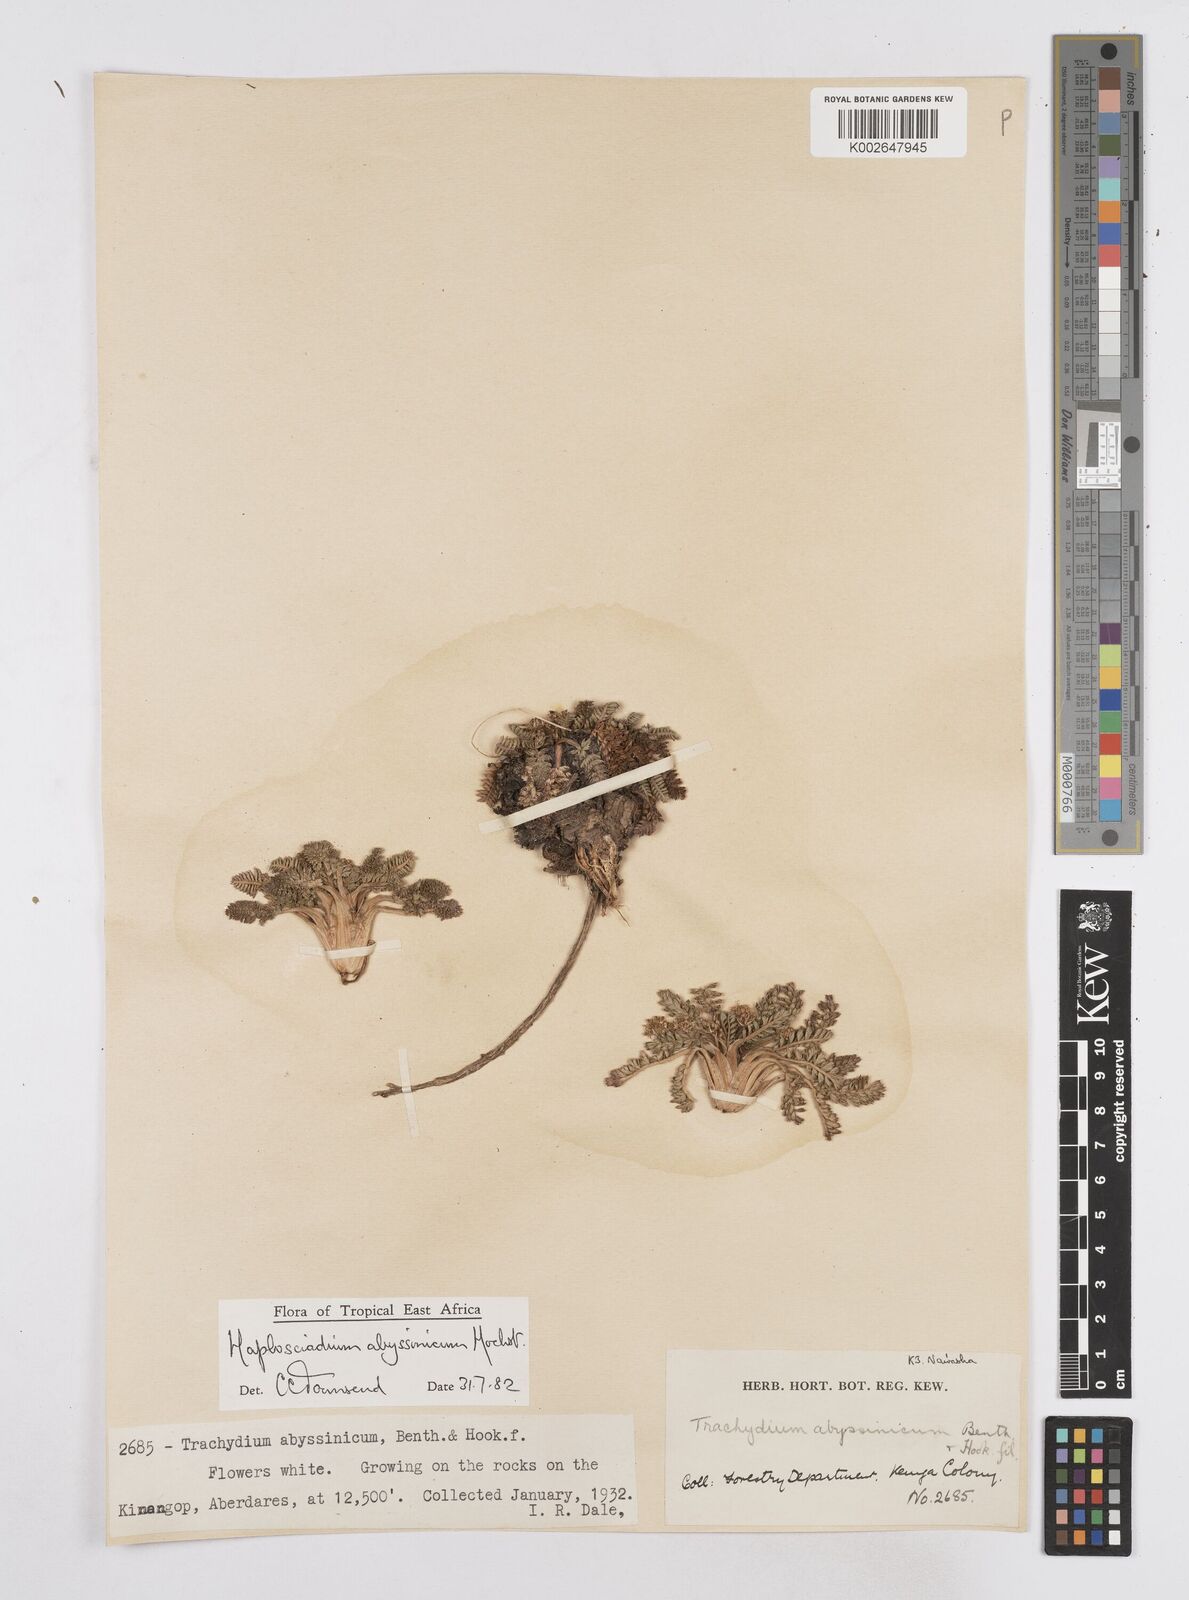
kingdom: Plantae
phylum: Tracheophyta
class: Magnoliopsida
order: Apiales
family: Apiaceae
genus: Haplosciadium
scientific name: Haplosciadium abyssinicum
